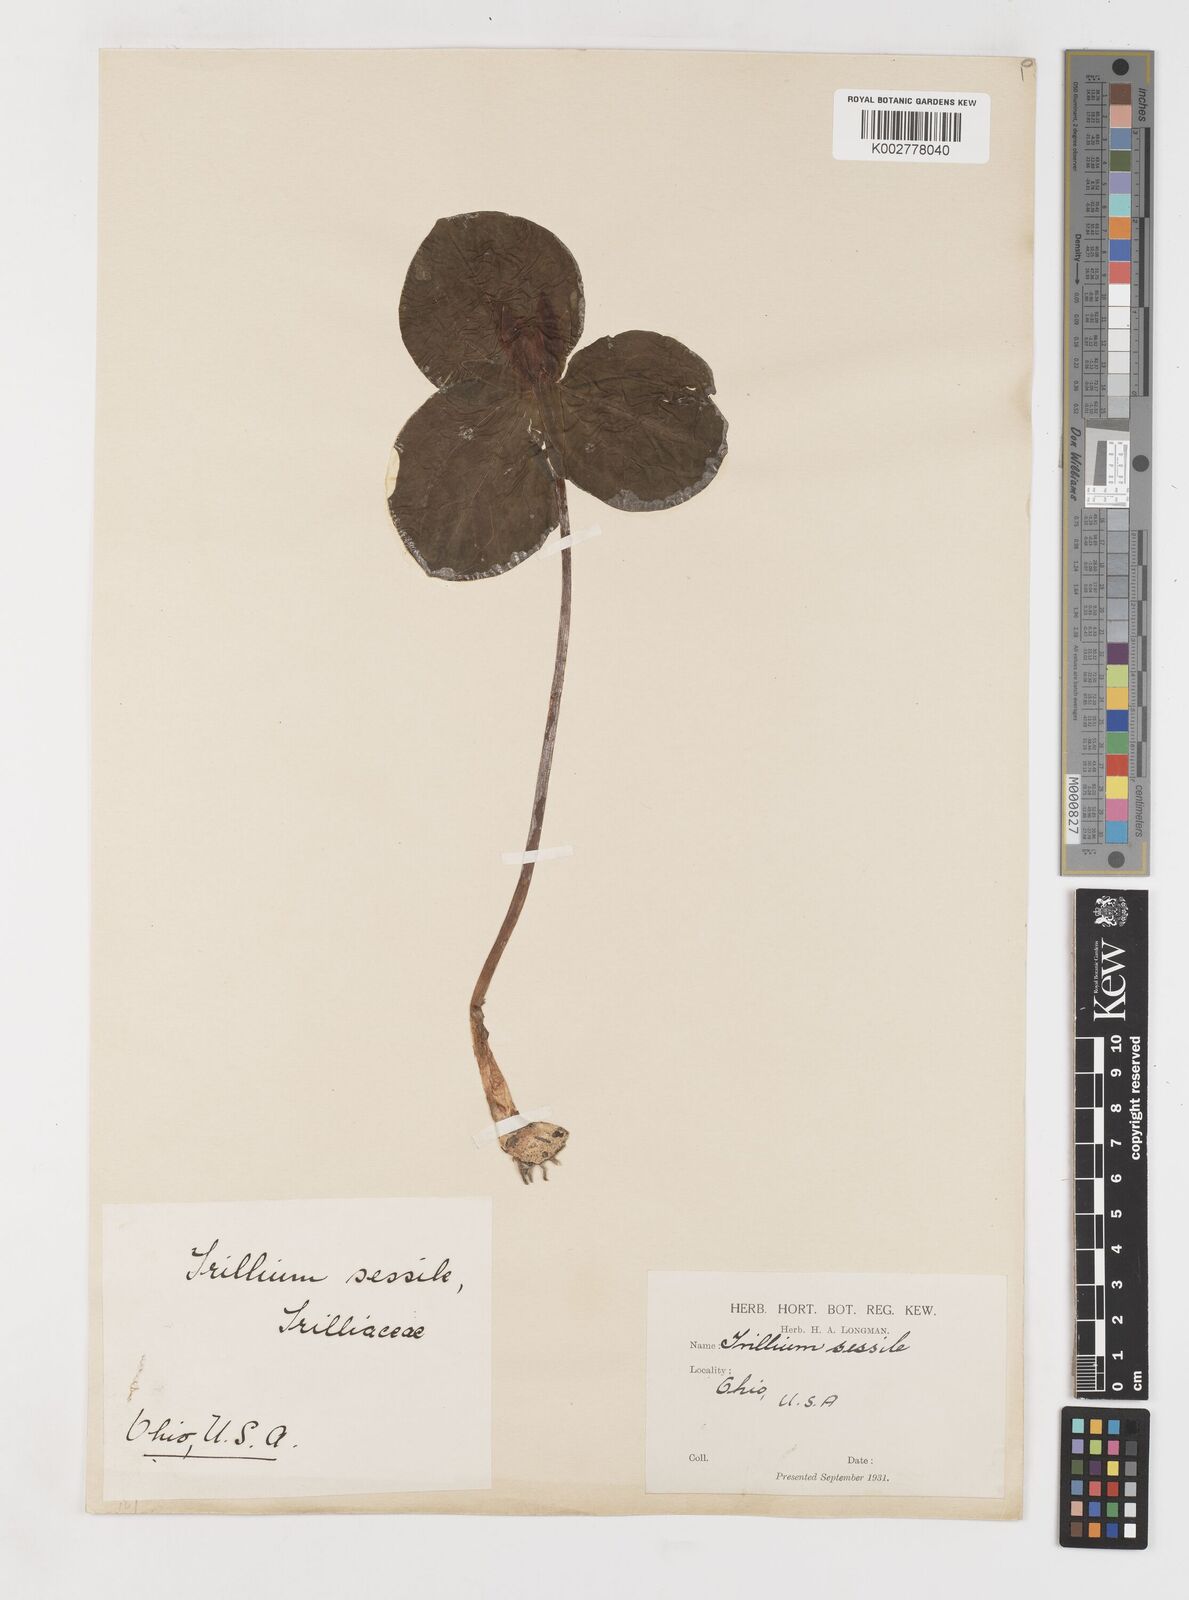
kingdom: Plantae
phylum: Tracheophyta
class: Liliopsida
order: Liliales
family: Melanthiaceae
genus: Trillium
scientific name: Trillium sessile
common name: Sessile trillium
